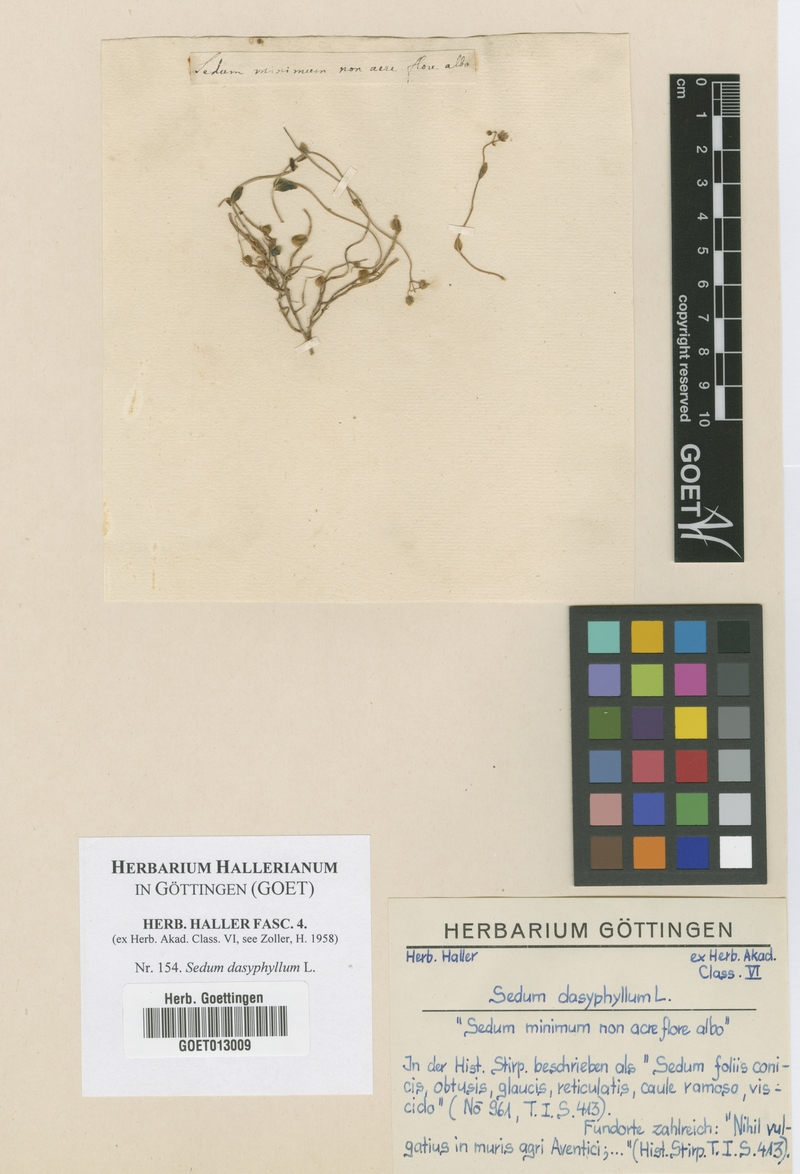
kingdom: Plantae
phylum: Tracheophyta
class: Magnoliopsida
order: Saxifragales
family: Crassulaceae
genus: Sedum
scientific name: Sedum dasyphyllum
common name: Thick-leaf stonecrop
